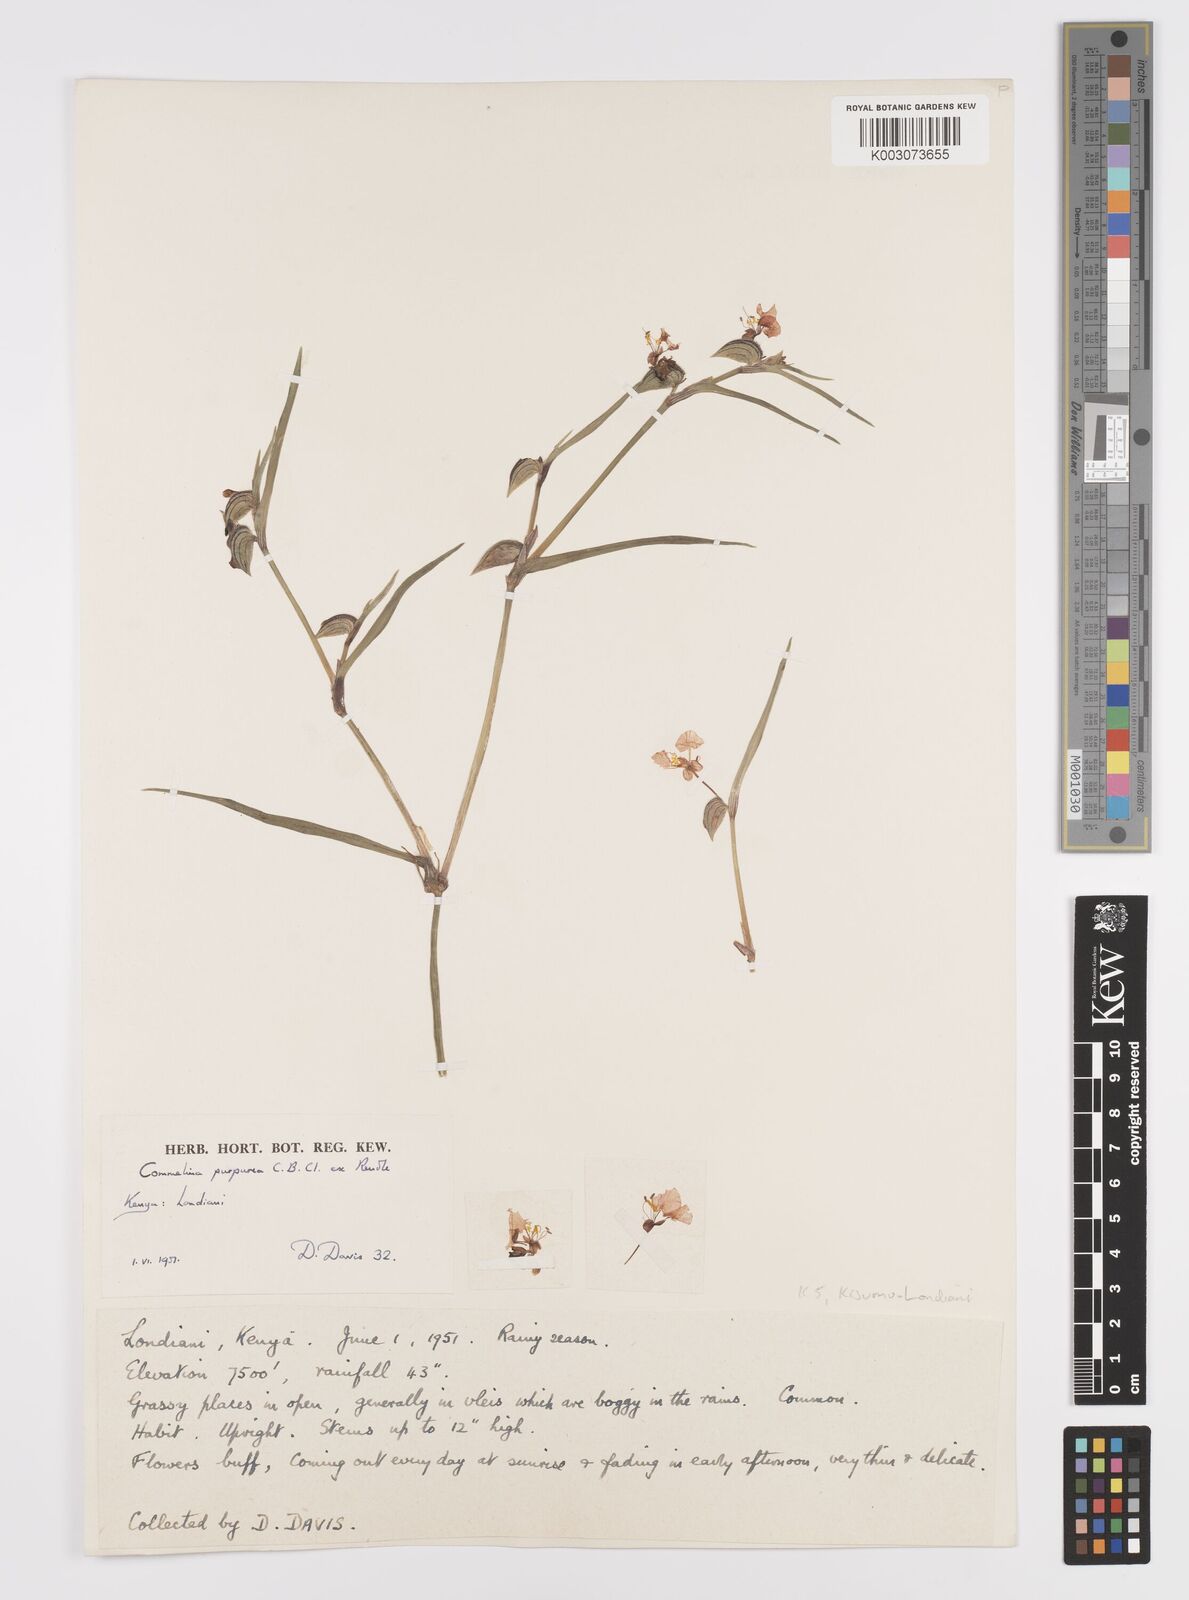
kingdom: Plantae
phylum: Tracheophyta
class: Liliopsida
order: Commelinales
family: Commelinaceae
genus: Commelina
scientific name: Commelina purpurea
